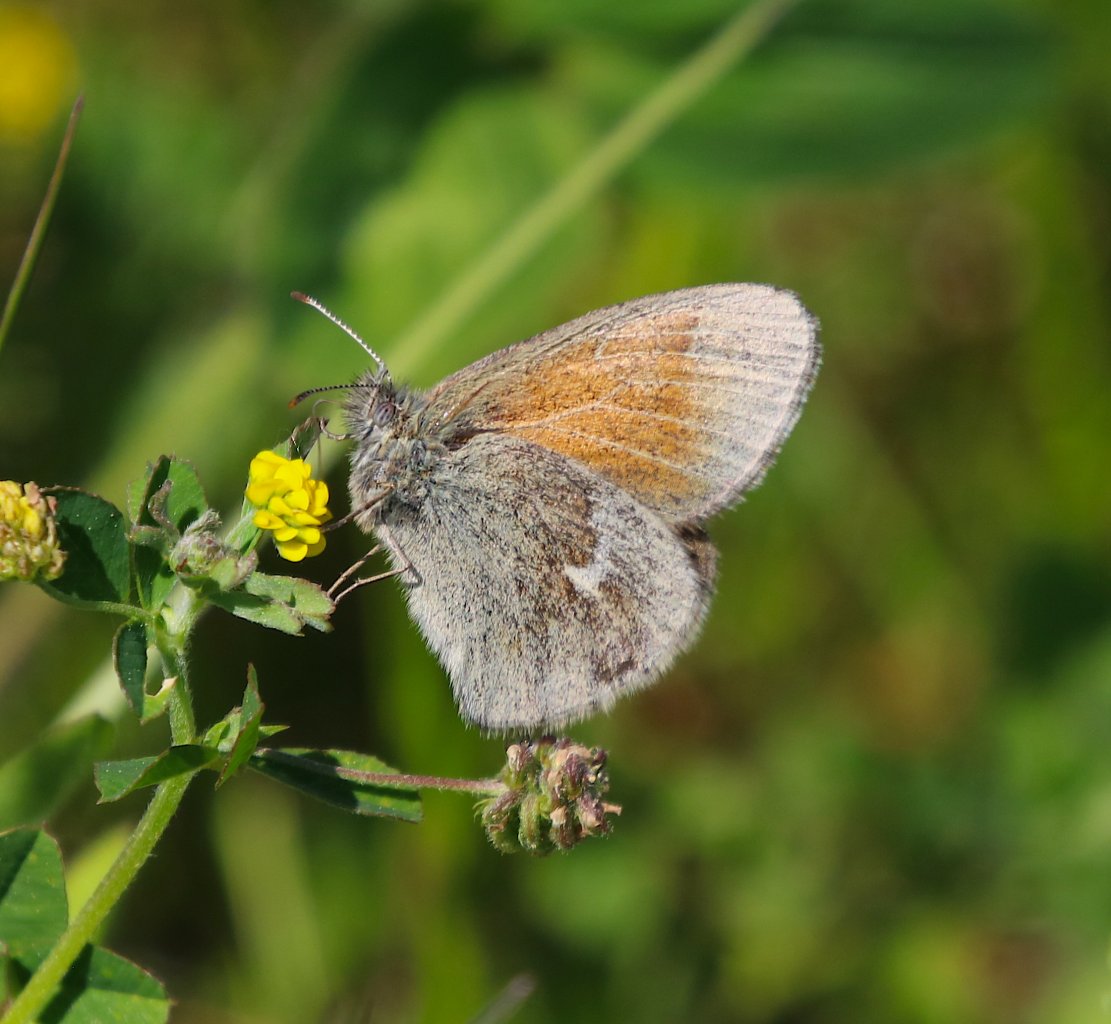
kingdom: Animalia
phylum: Arthropoda
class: Insecta
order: Lepidoptera
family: Nymphalidae
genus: Coenonympha
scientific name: Coenonympha tullia
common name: Large Heath
